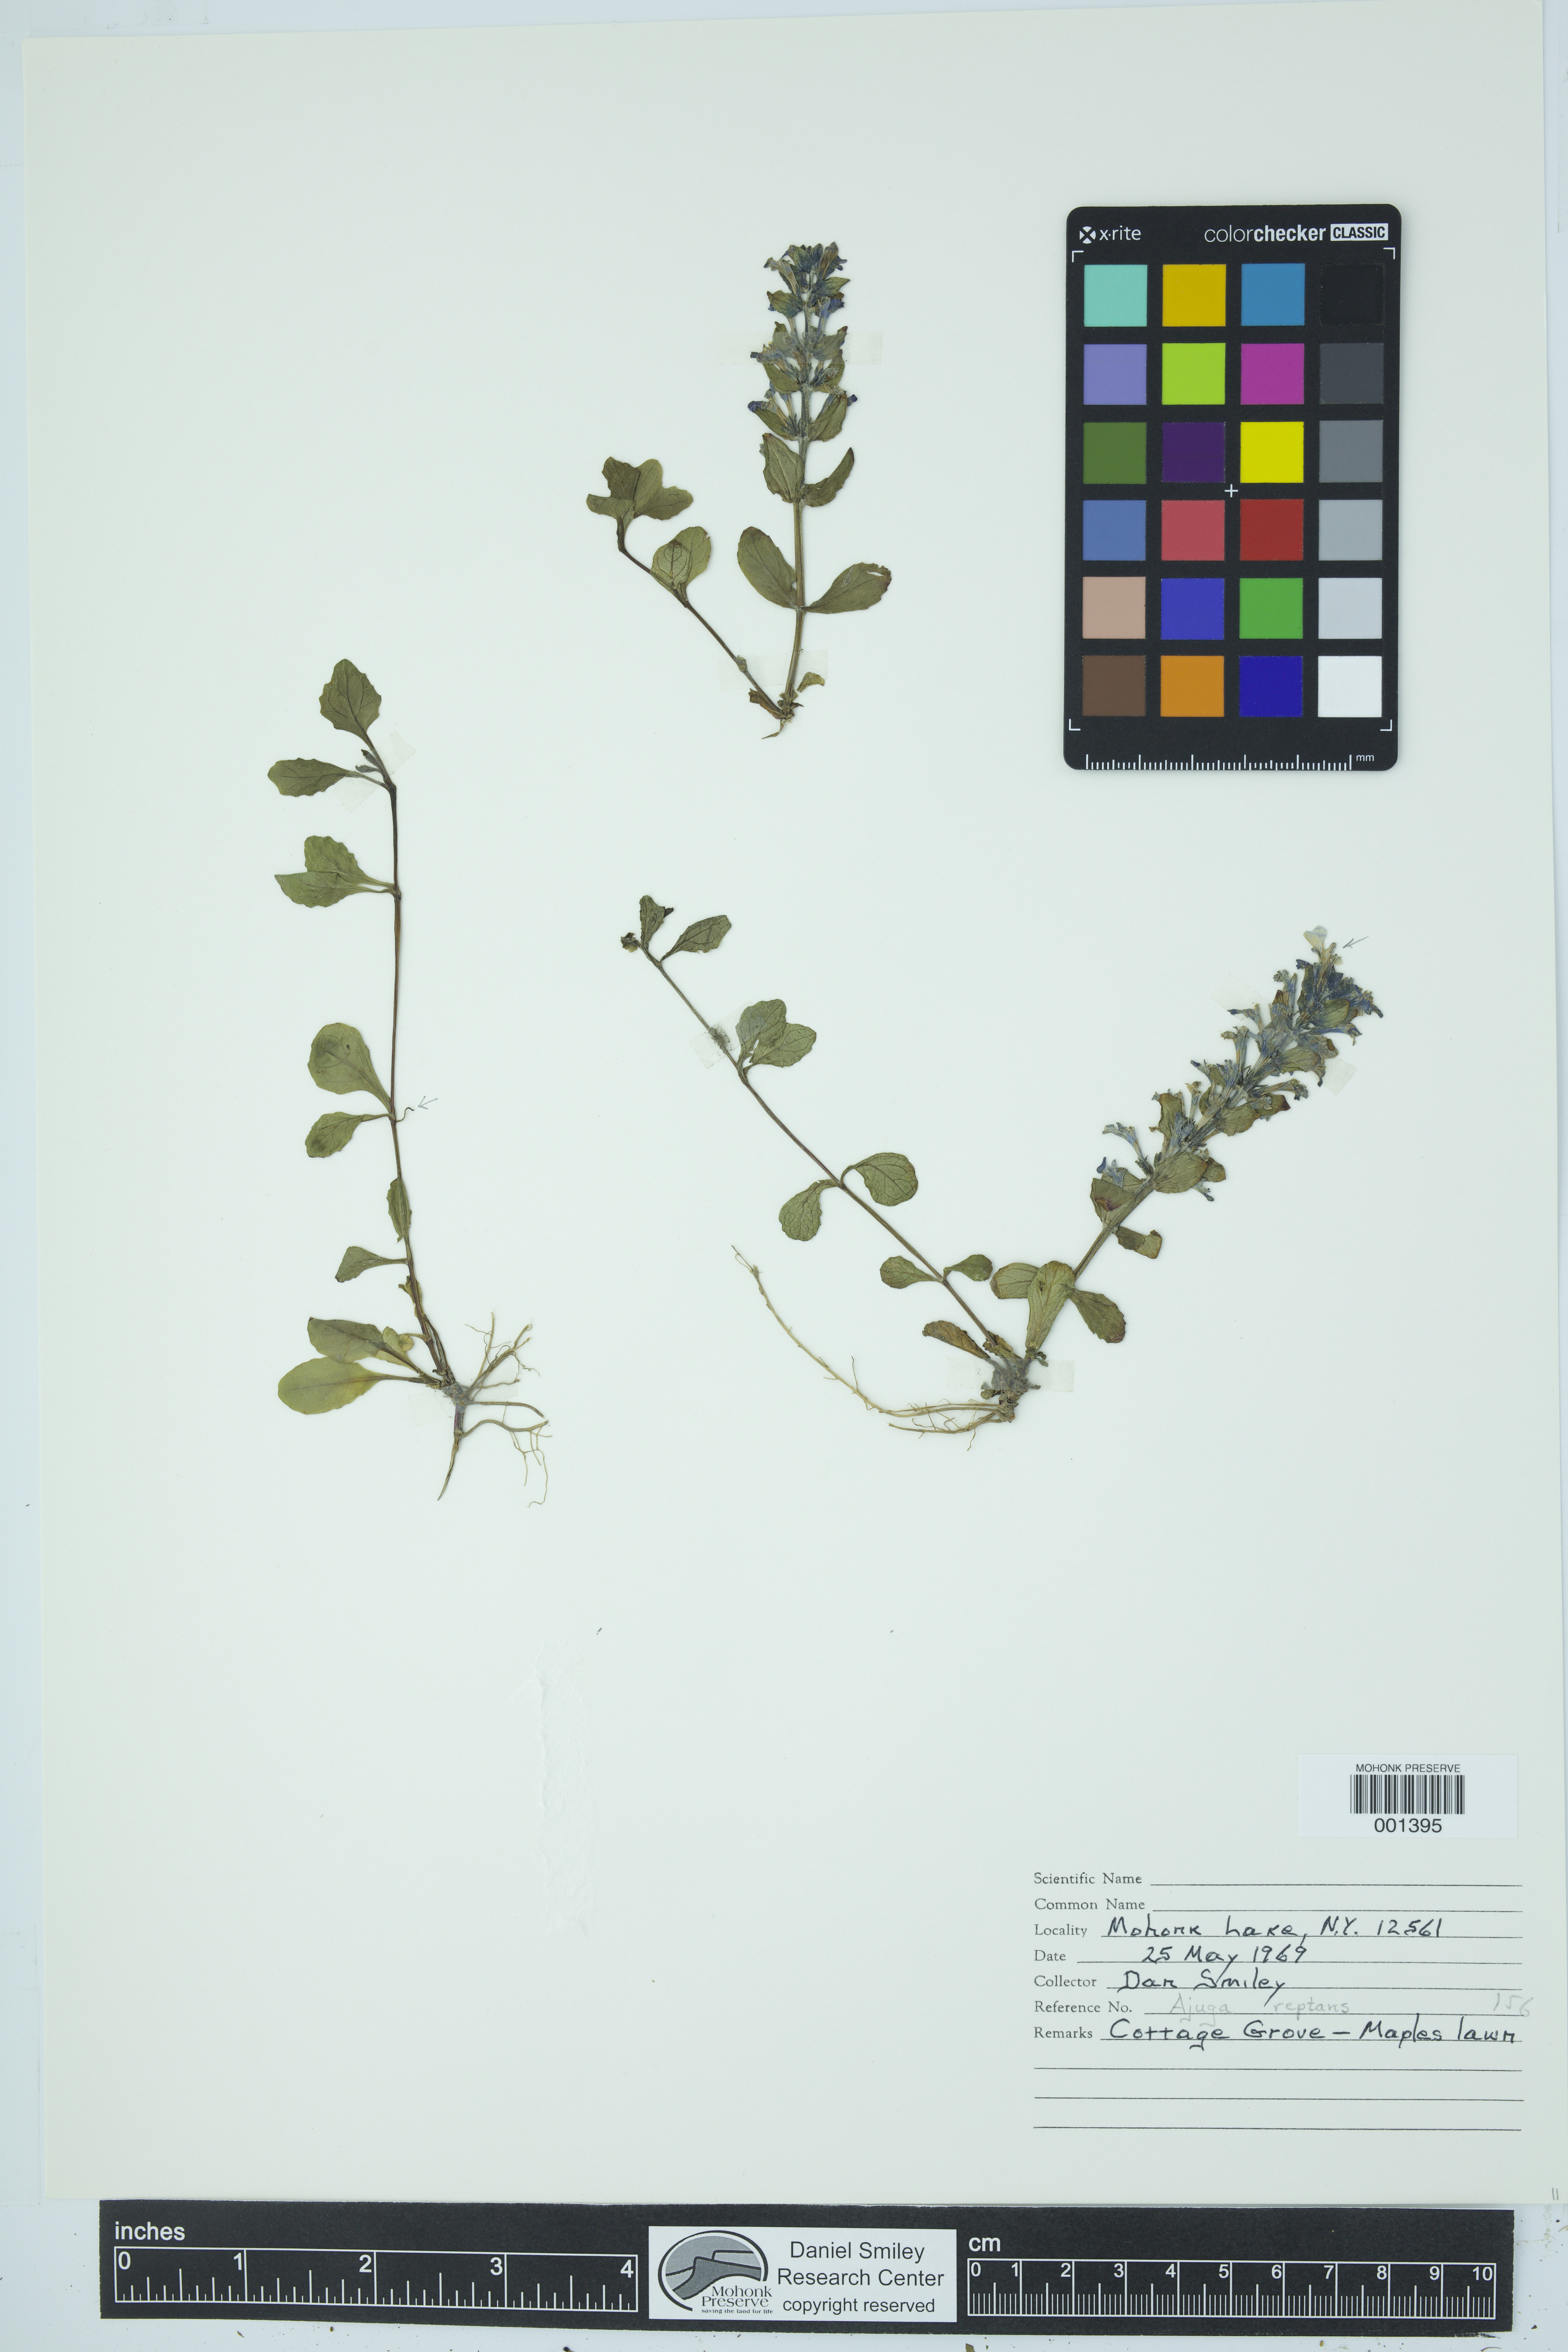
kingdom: Plantae
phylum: Tracheophyta
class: Magnoliopsida
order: Lamiales
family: Lamiaceae
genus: Ajuga
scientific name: Ajuga reptans
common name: Bugle
